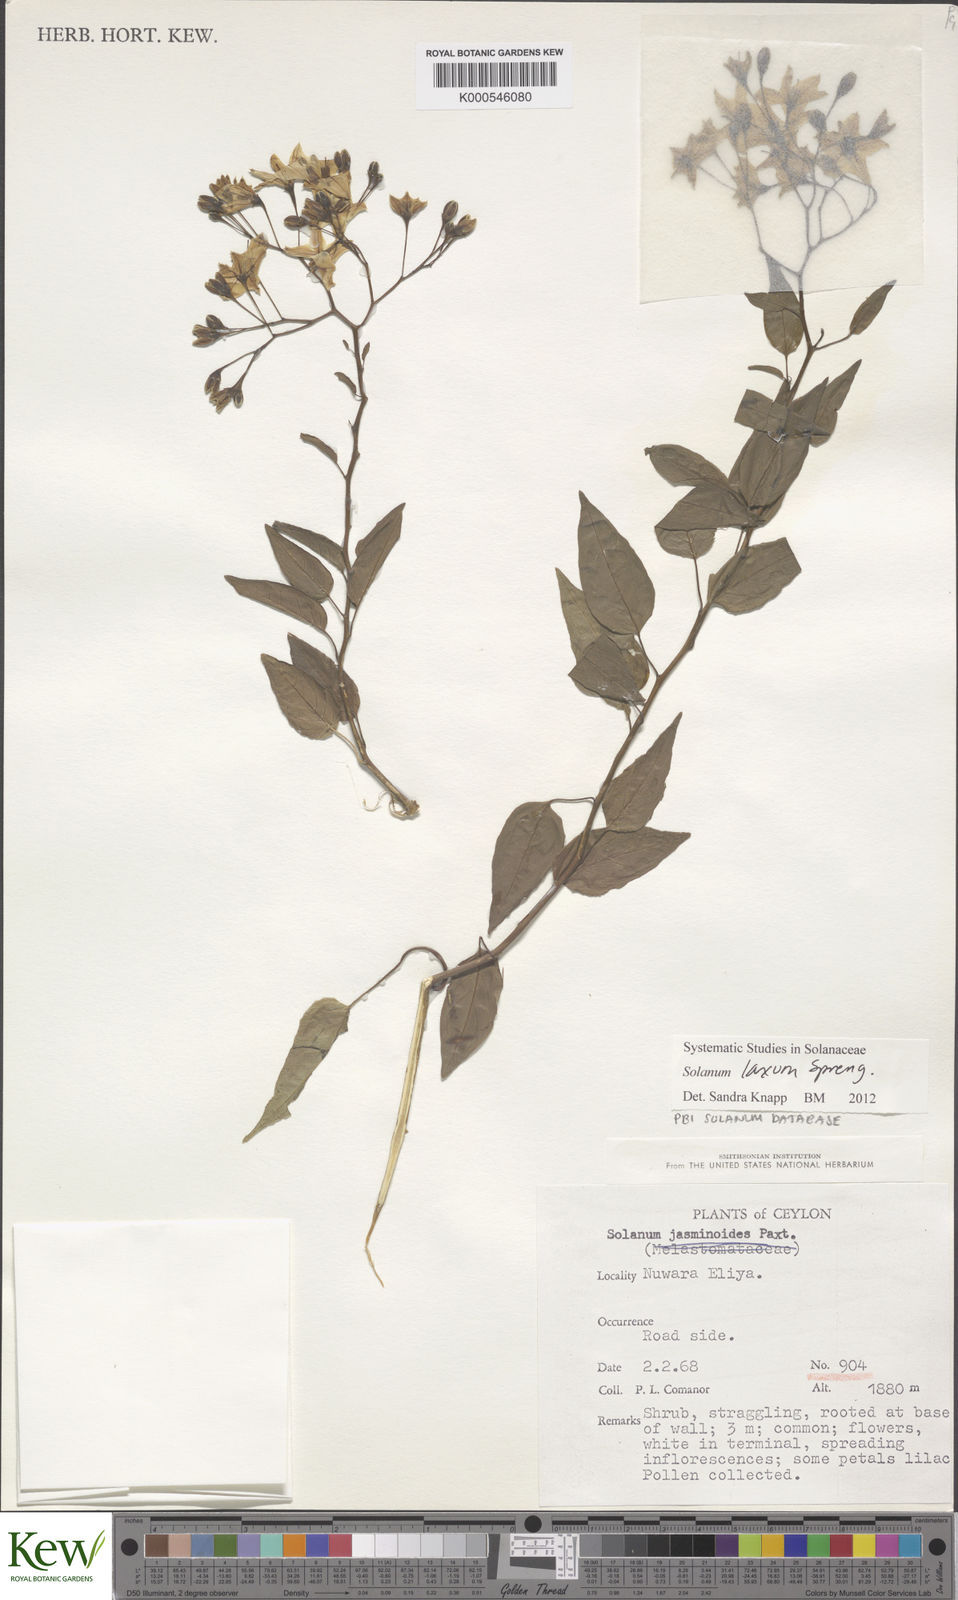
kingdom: Plantae
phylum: Tracheophyta
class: Magnoliopsida
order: Solanales
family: Solanaceae
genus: Solanum
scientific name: Solanum laxum
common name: Nightshade
